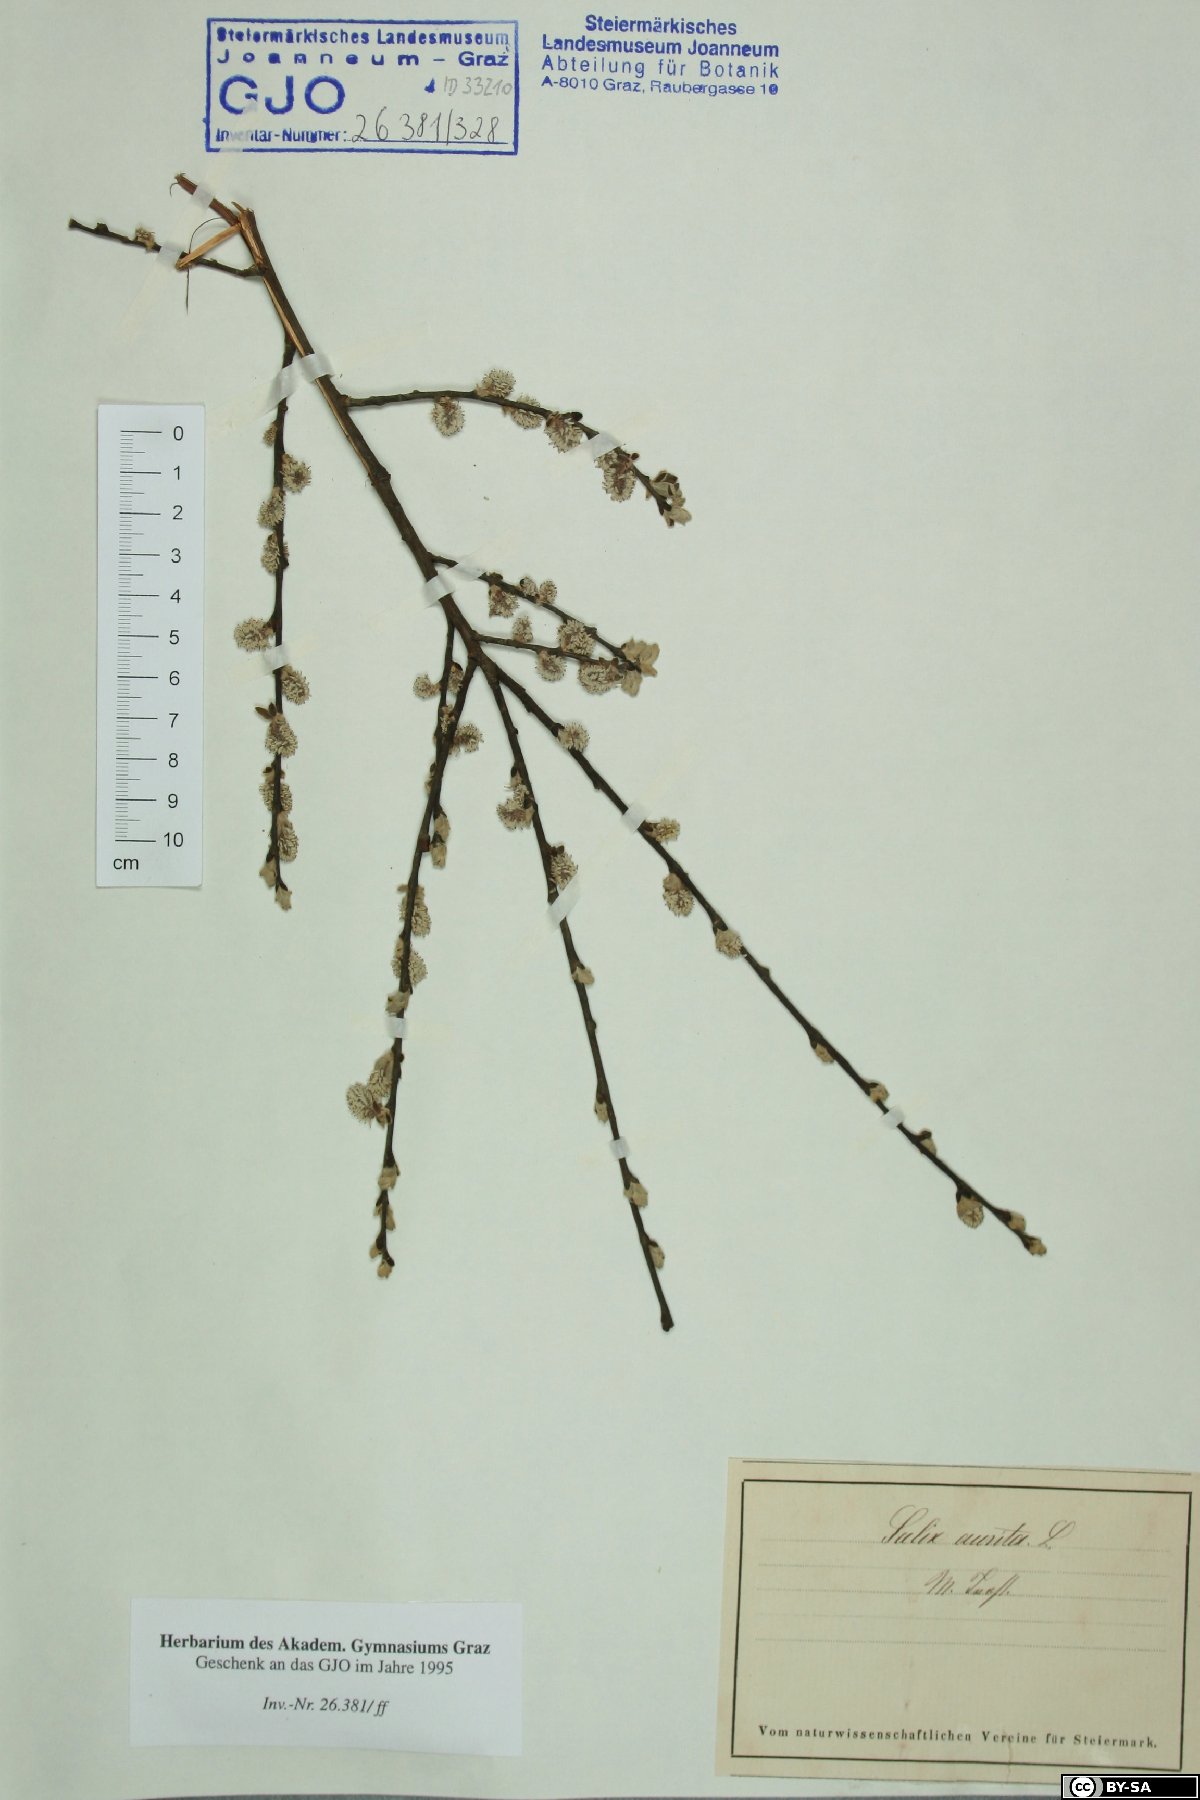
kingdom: Plantae
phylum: Tracheophyta
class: Magnoliopsida
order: Malpighiales
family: Salicaceae
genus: Salix
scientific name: Salix aurita
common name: Eared willow
